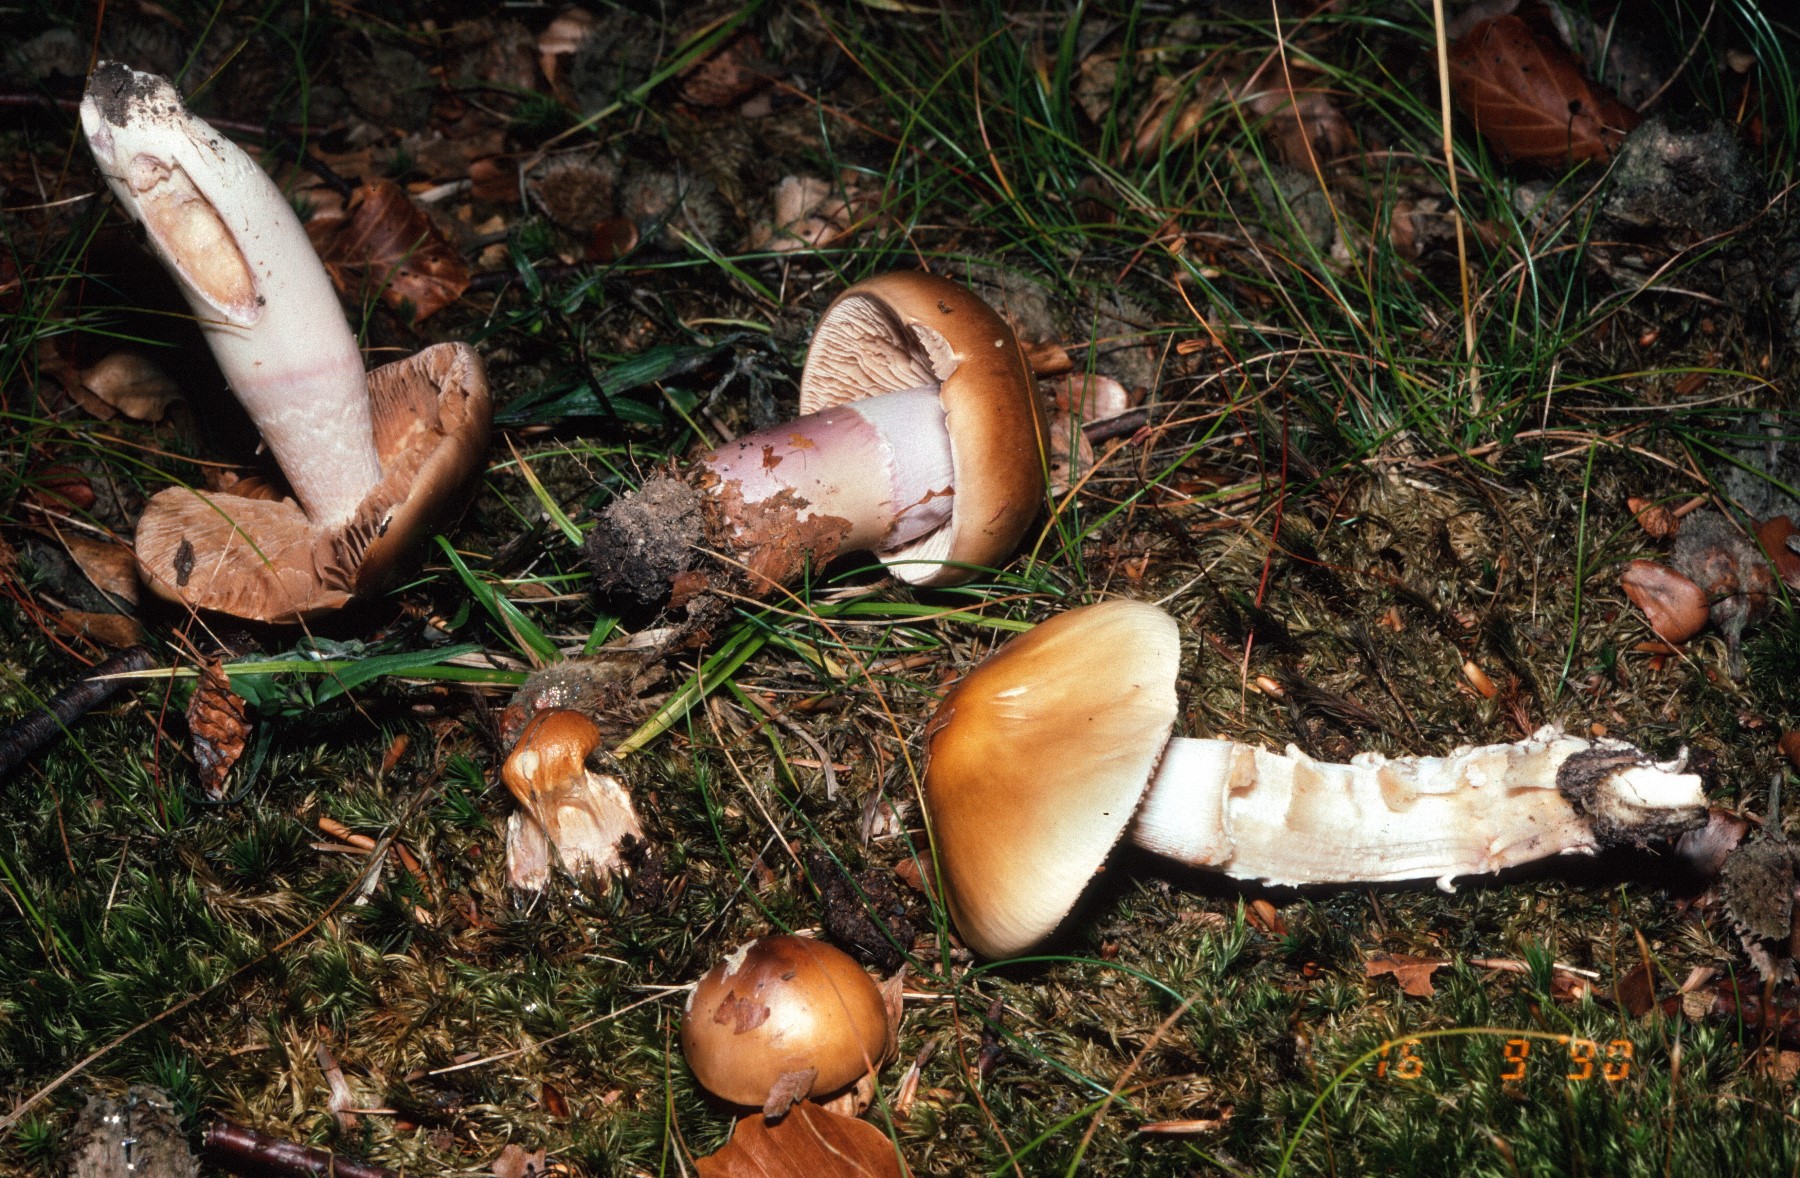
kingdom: Fungi
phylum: Basidiomycota
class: Agaricomycetes
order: Agaricales
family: Cortinariaceae
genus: Cortinarius
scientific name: Cortinarius elatior
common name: høj slørhat
